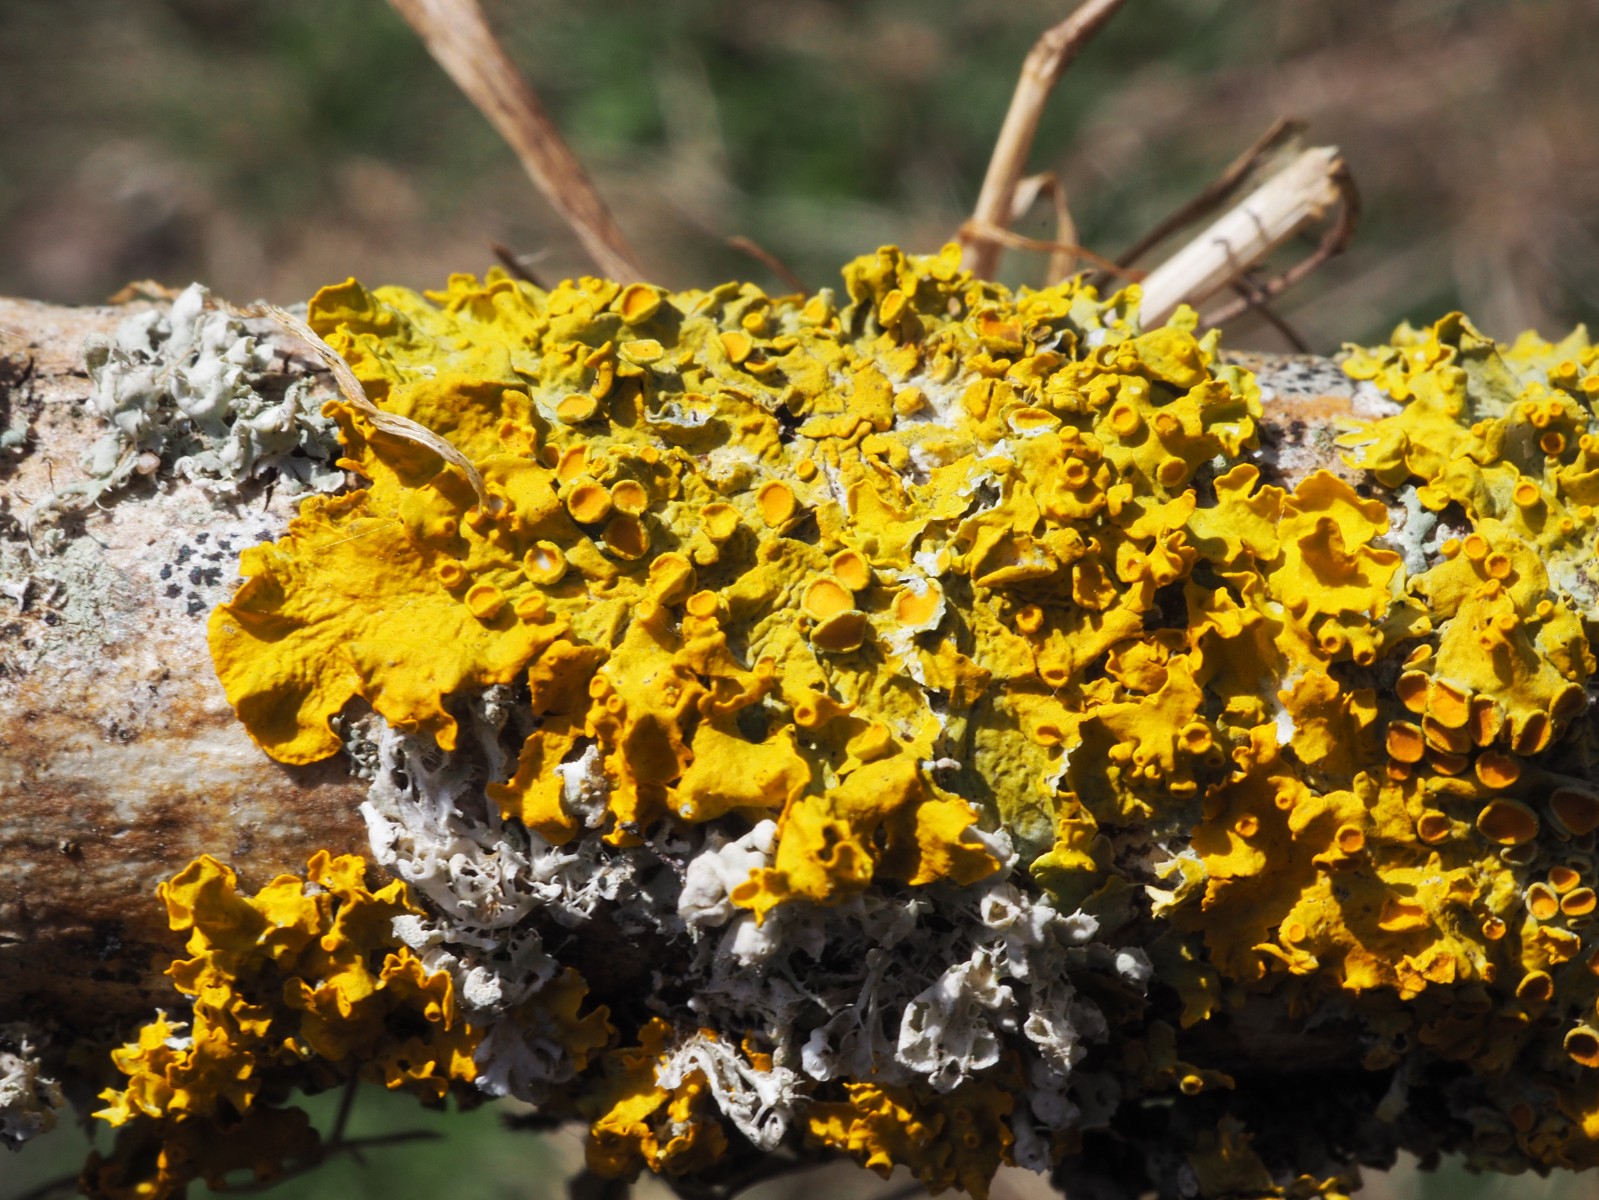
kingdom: Fungi
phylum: Ascomycota
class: Lecanoromycetes
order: Teloschistales
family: Teloschistaceae
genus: Xanthoria
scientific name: Xanthoria parietina
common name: almindelig væggelav
